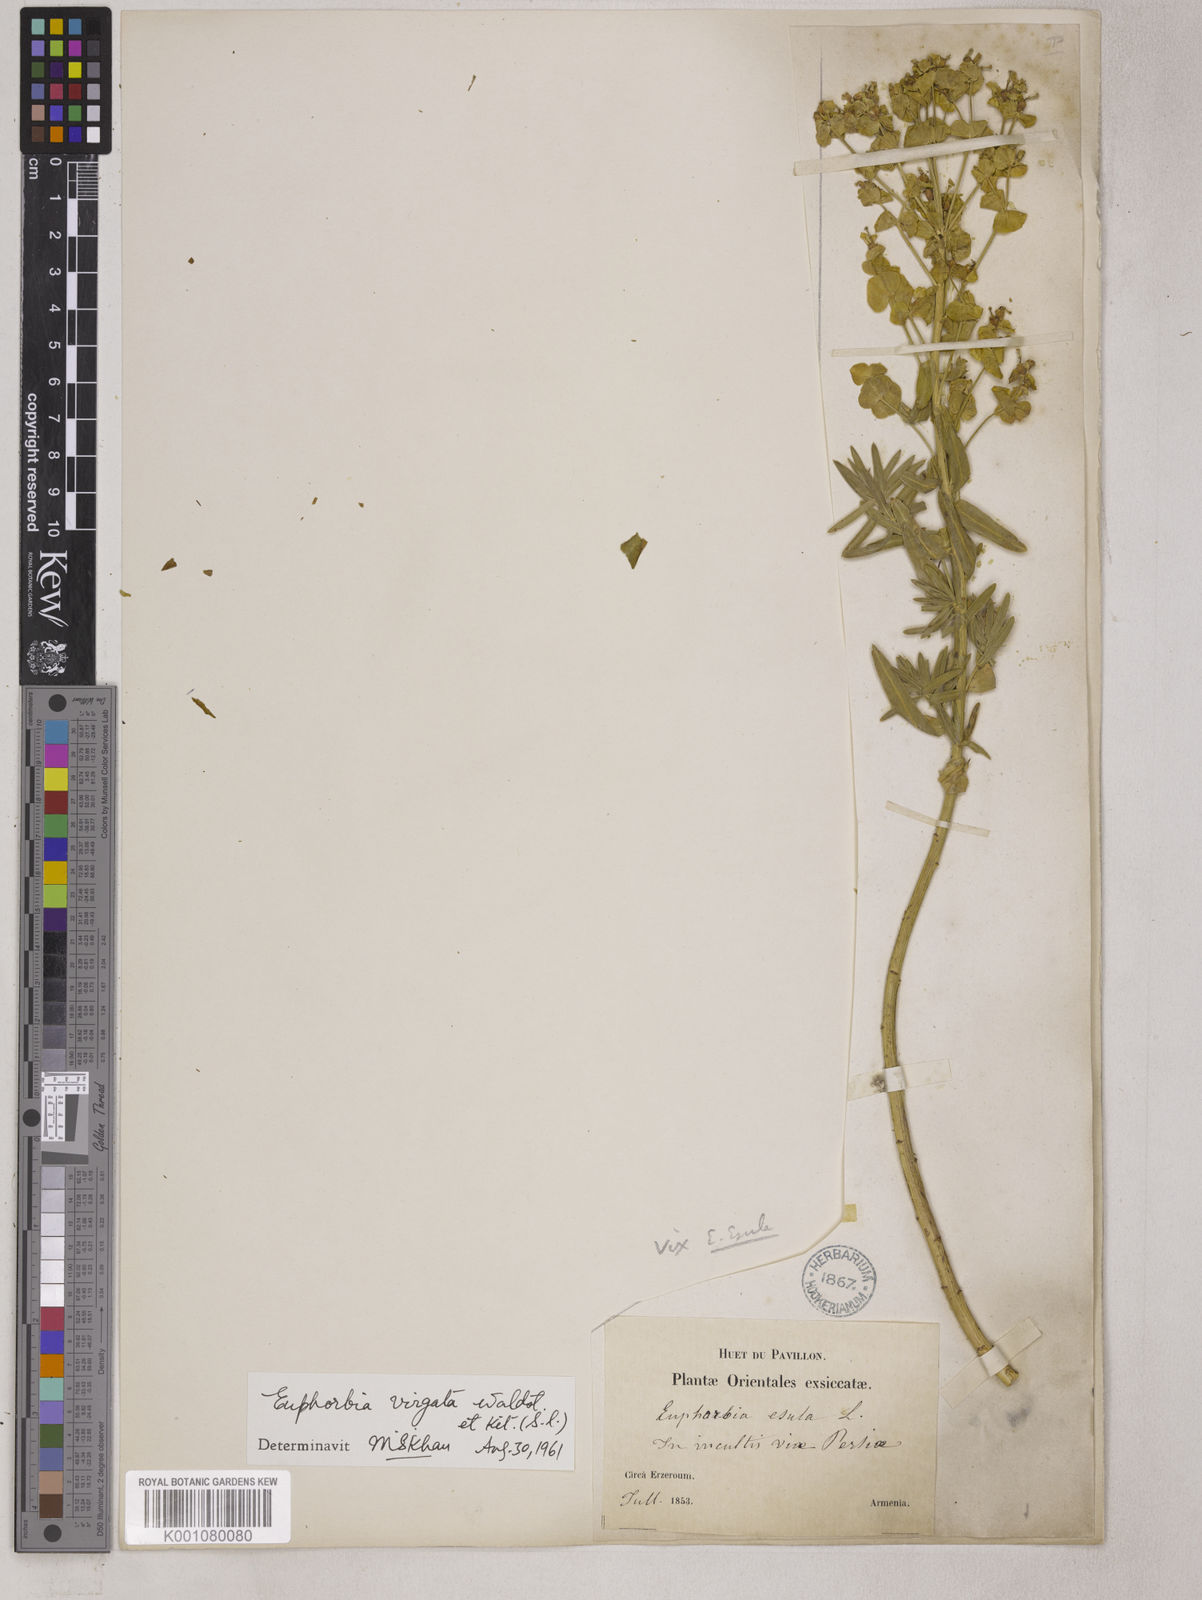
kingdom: Plantae
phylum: Tracheophyta
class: Magnoliopsida
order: Malpighiales
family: Euphorbiaceae
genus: Euphorbia
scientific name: Euphorbia virgata
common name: Leafy spurge
